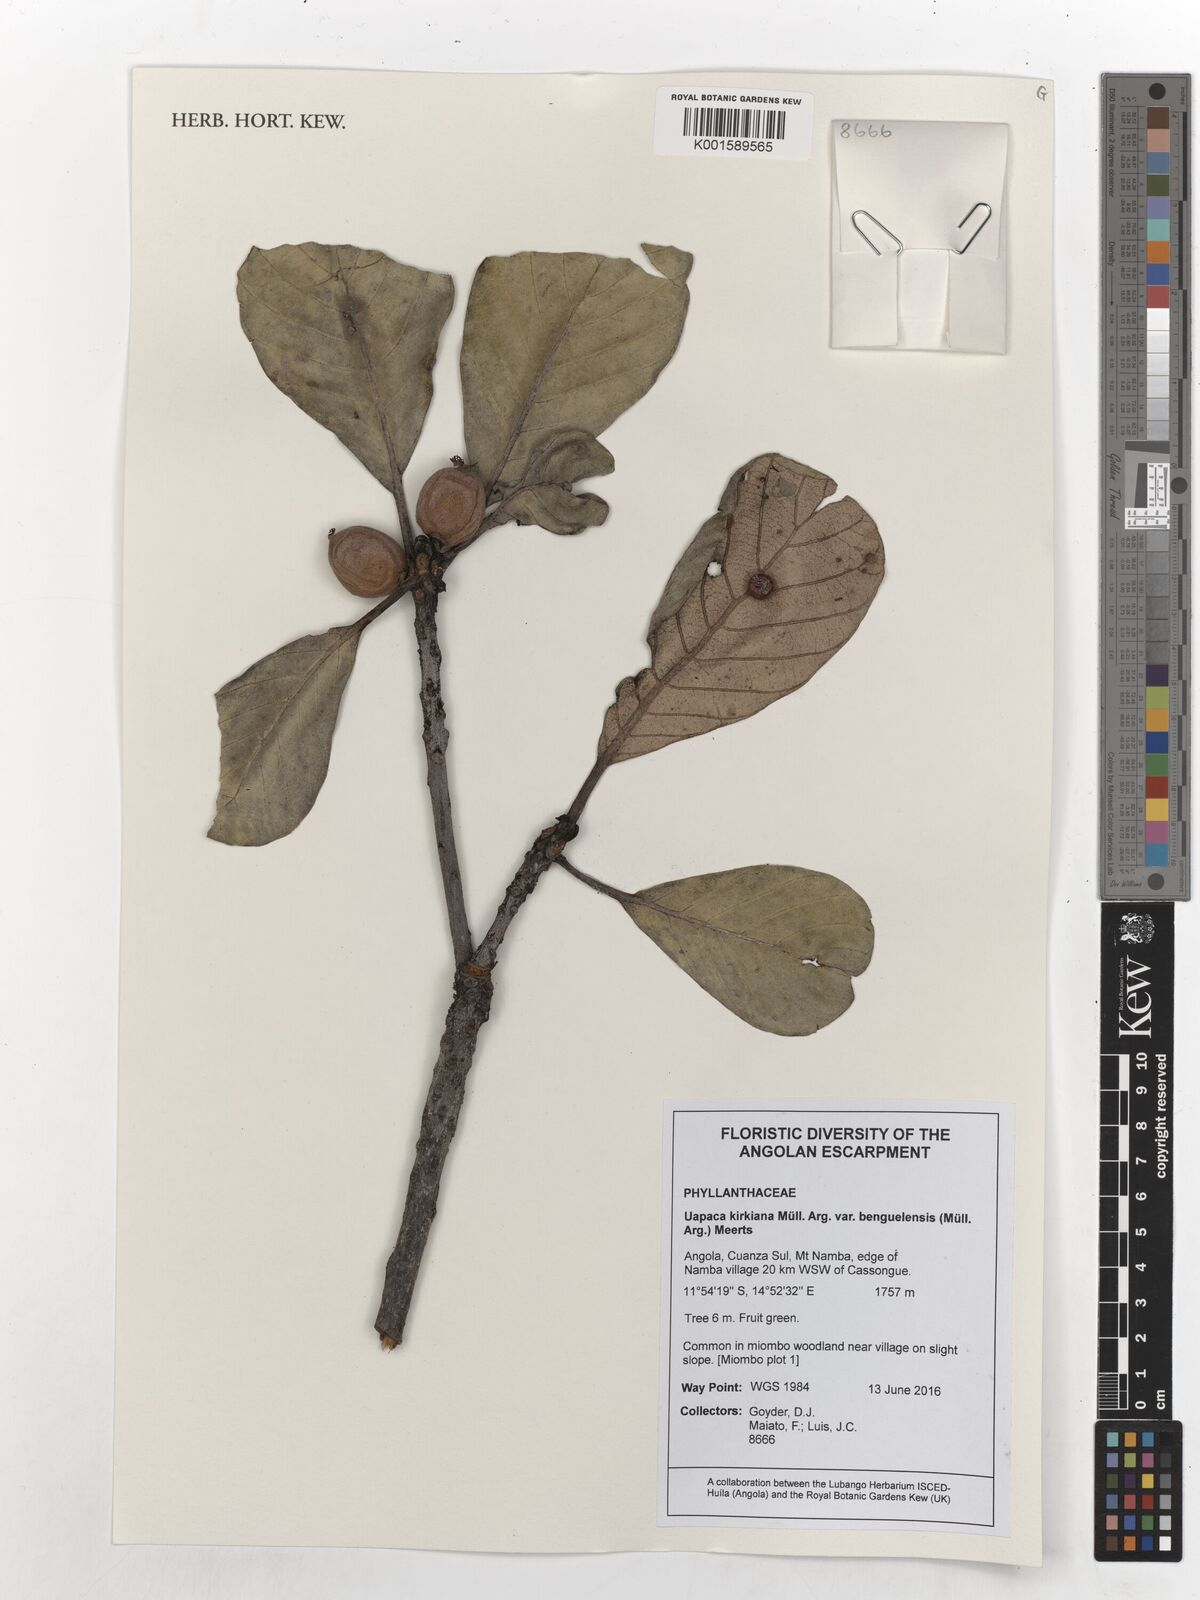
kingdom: Plantae
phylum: Tracheophyta
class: Magnoliopsida
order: Malpighiales
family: Phyllanthaceae
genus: Uapaca
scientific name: Uapaca kirkiana
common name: Wild loquat
